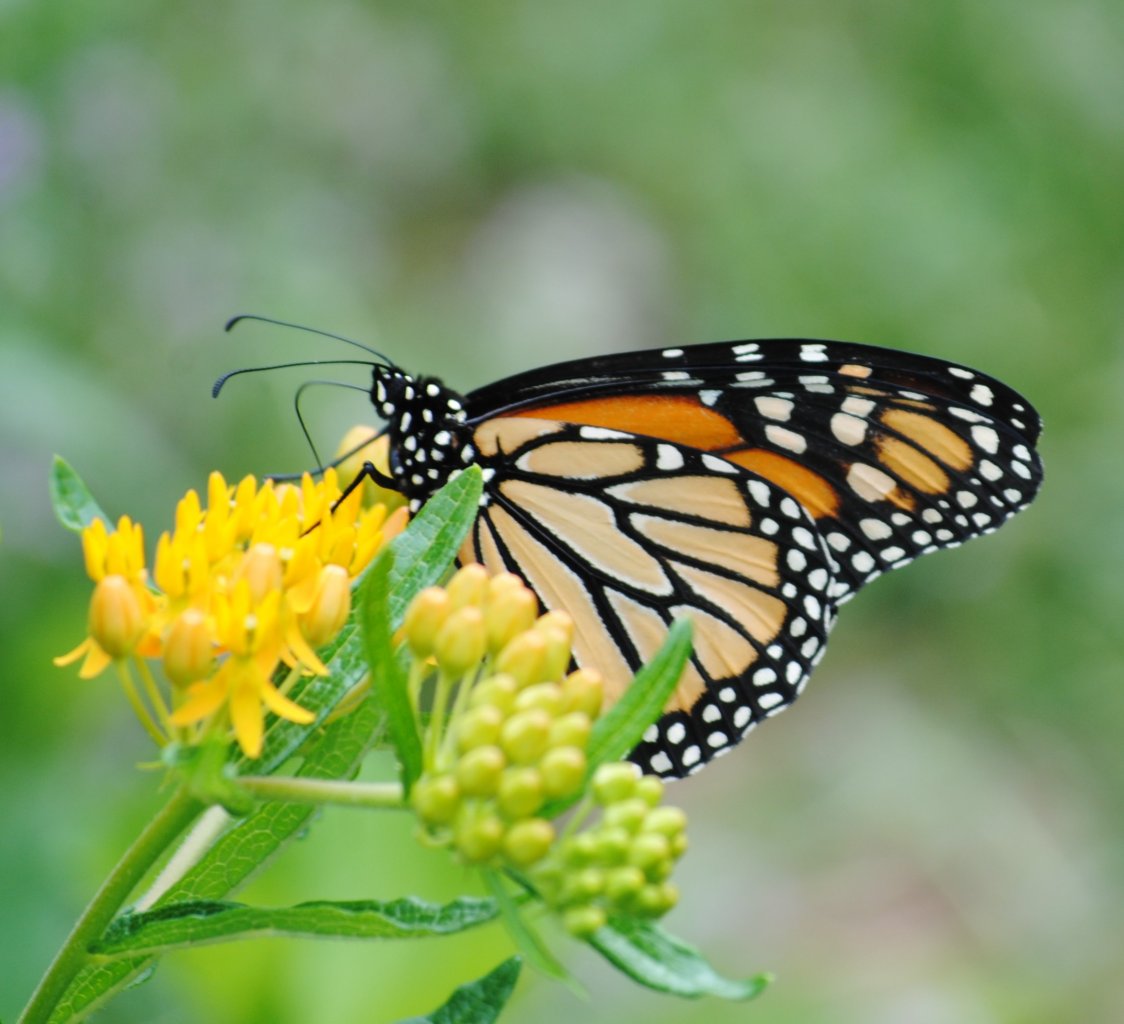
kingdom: Animalia
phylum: Arthropoda
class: Insecta
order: Lepidoptera
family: Nymphalidae
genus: Danaus
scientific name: Danaus plexippus
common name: Monarch
